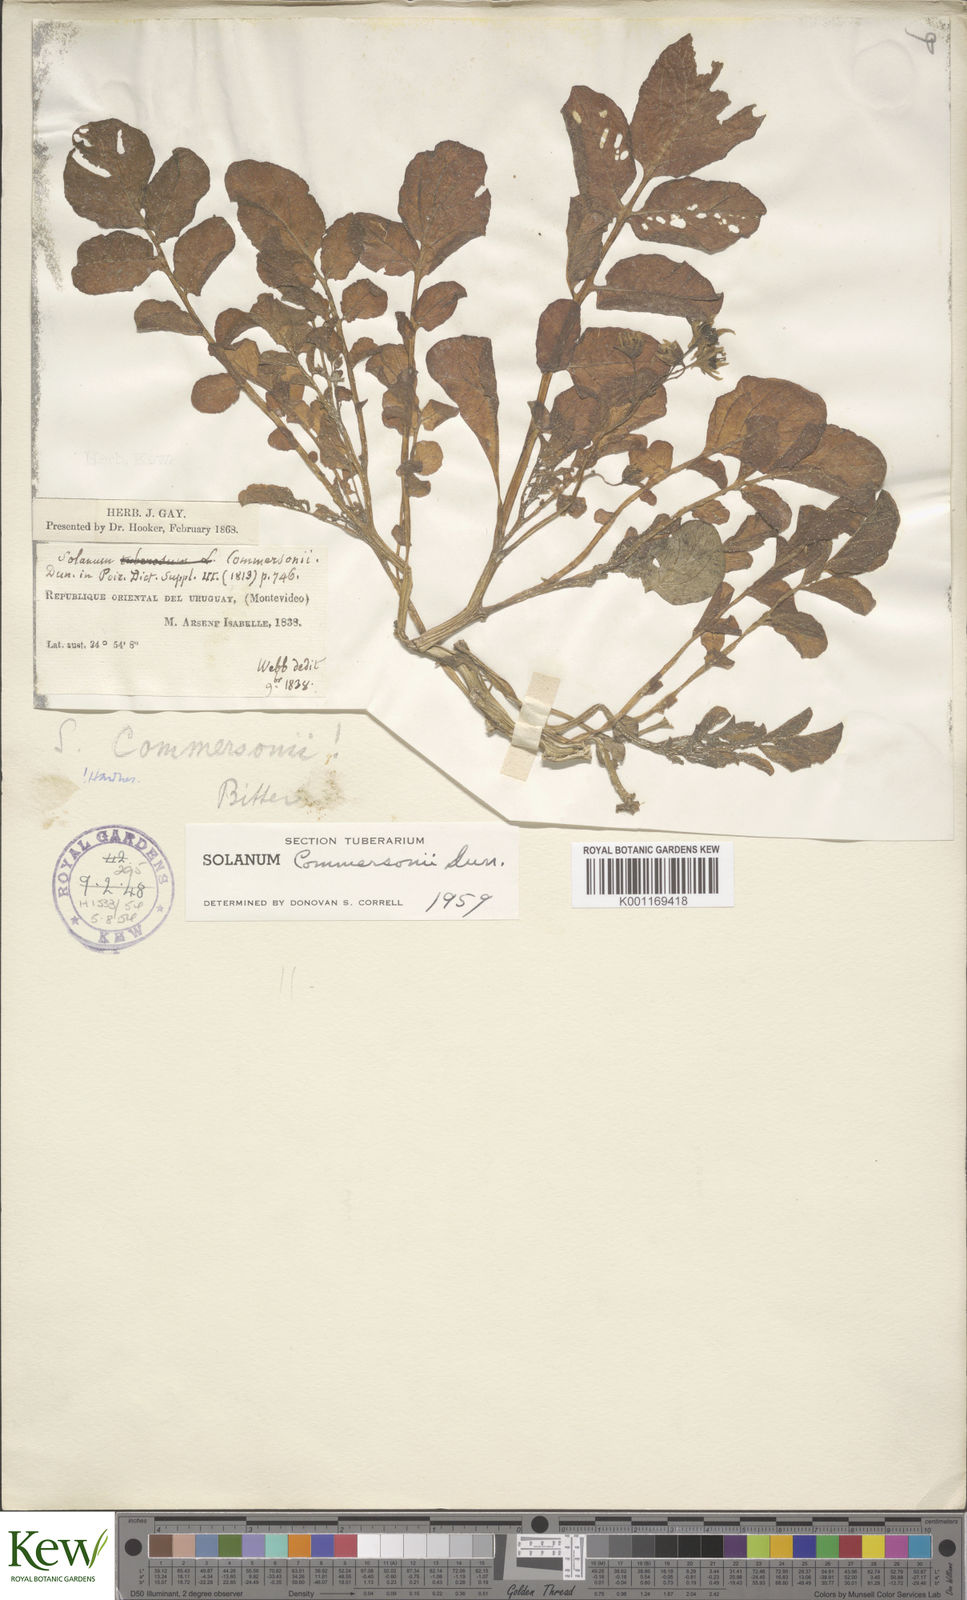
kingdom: Plantae
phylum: Tracheophyta
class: Magnoliopsida
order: Solanales
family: Solanaceae
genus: Solanum
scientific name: Solanum commersonii
